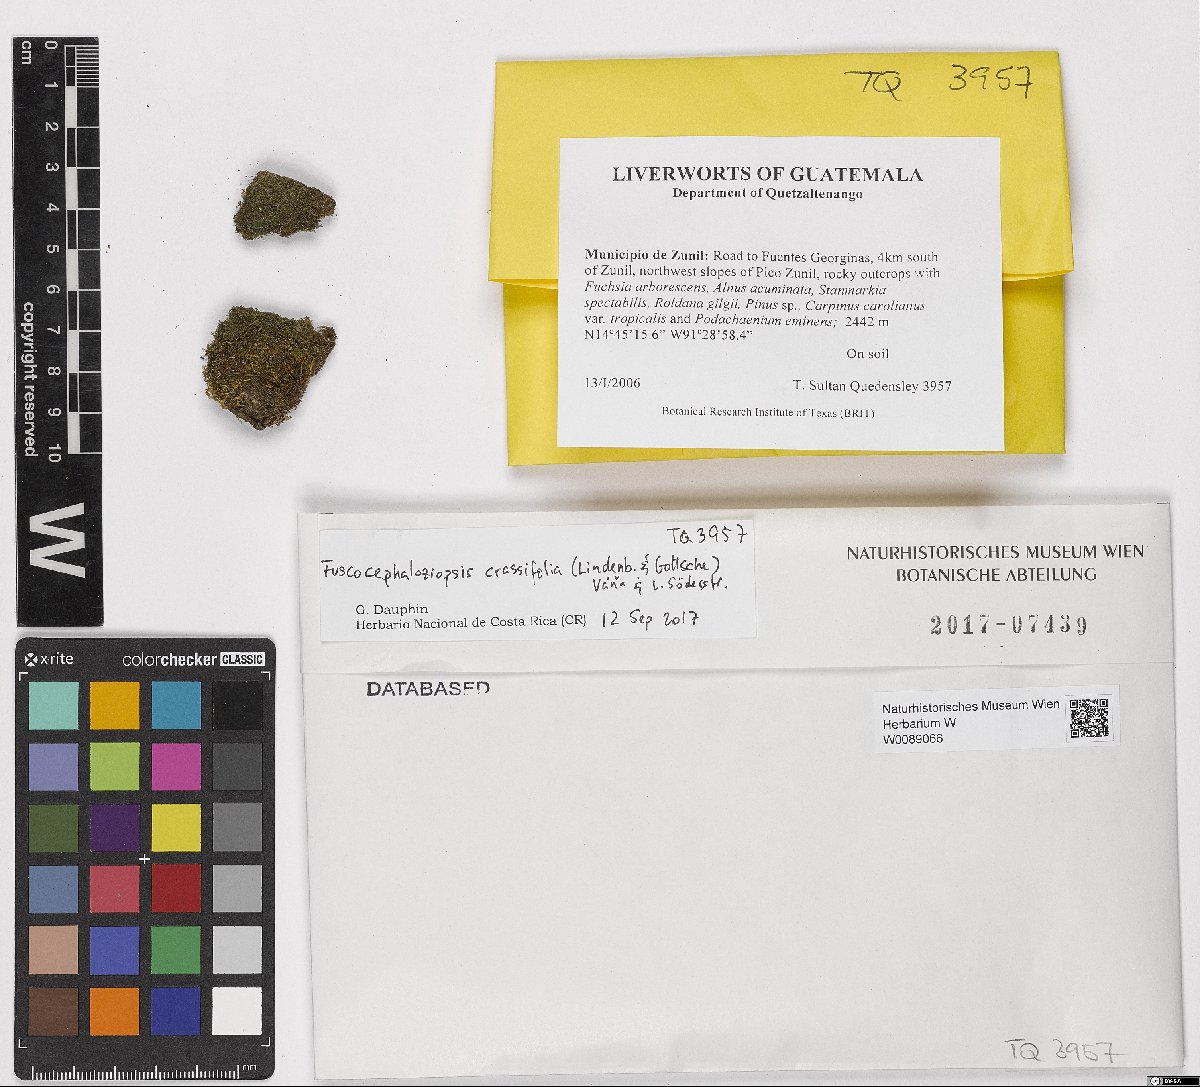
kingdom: Plantae
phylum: Marchantiophyta
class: Jungermanniopsida
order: Jungermanniales
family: Cephaloziaceae
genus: Fuscocephaloziopsis
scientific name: Fuscocephaloziopsis crassifolia
